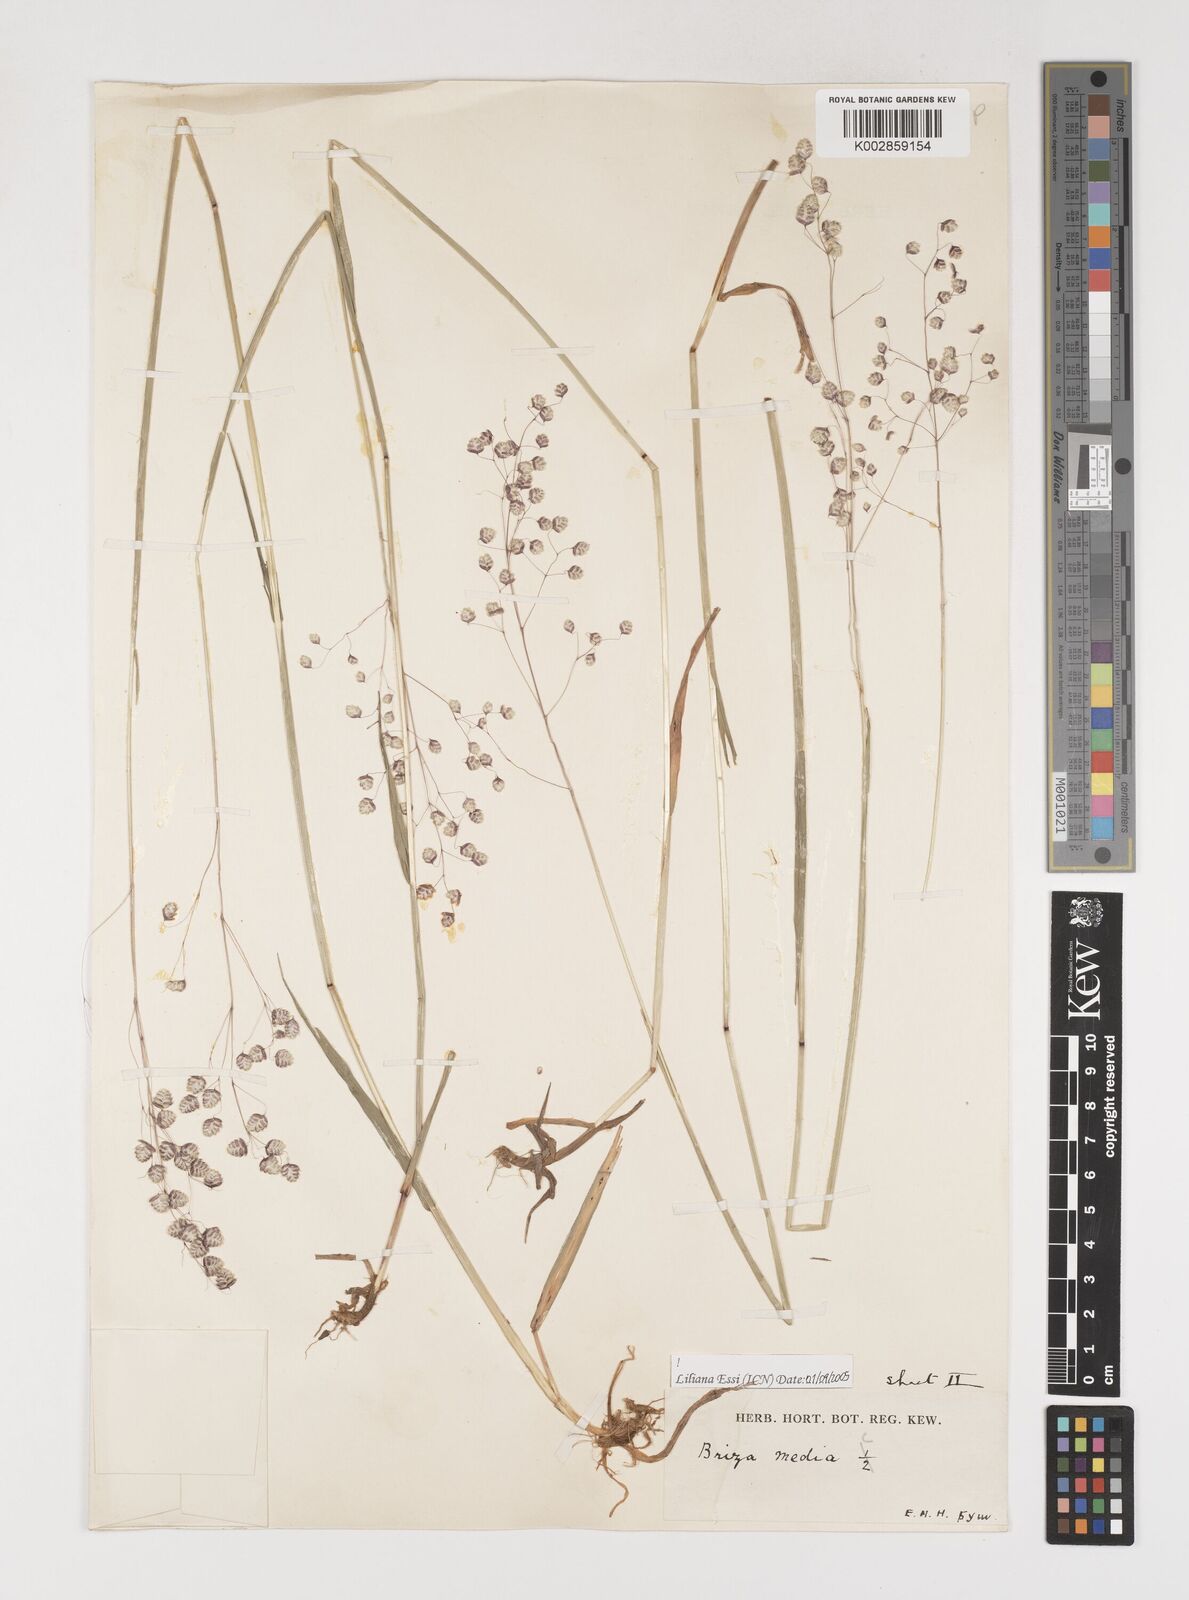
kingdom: Plantae
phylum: Tracheophyta
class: Liliopsida
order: Poales
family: Poaceae
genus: Briza
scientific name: Briza media
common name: Quaking grass
